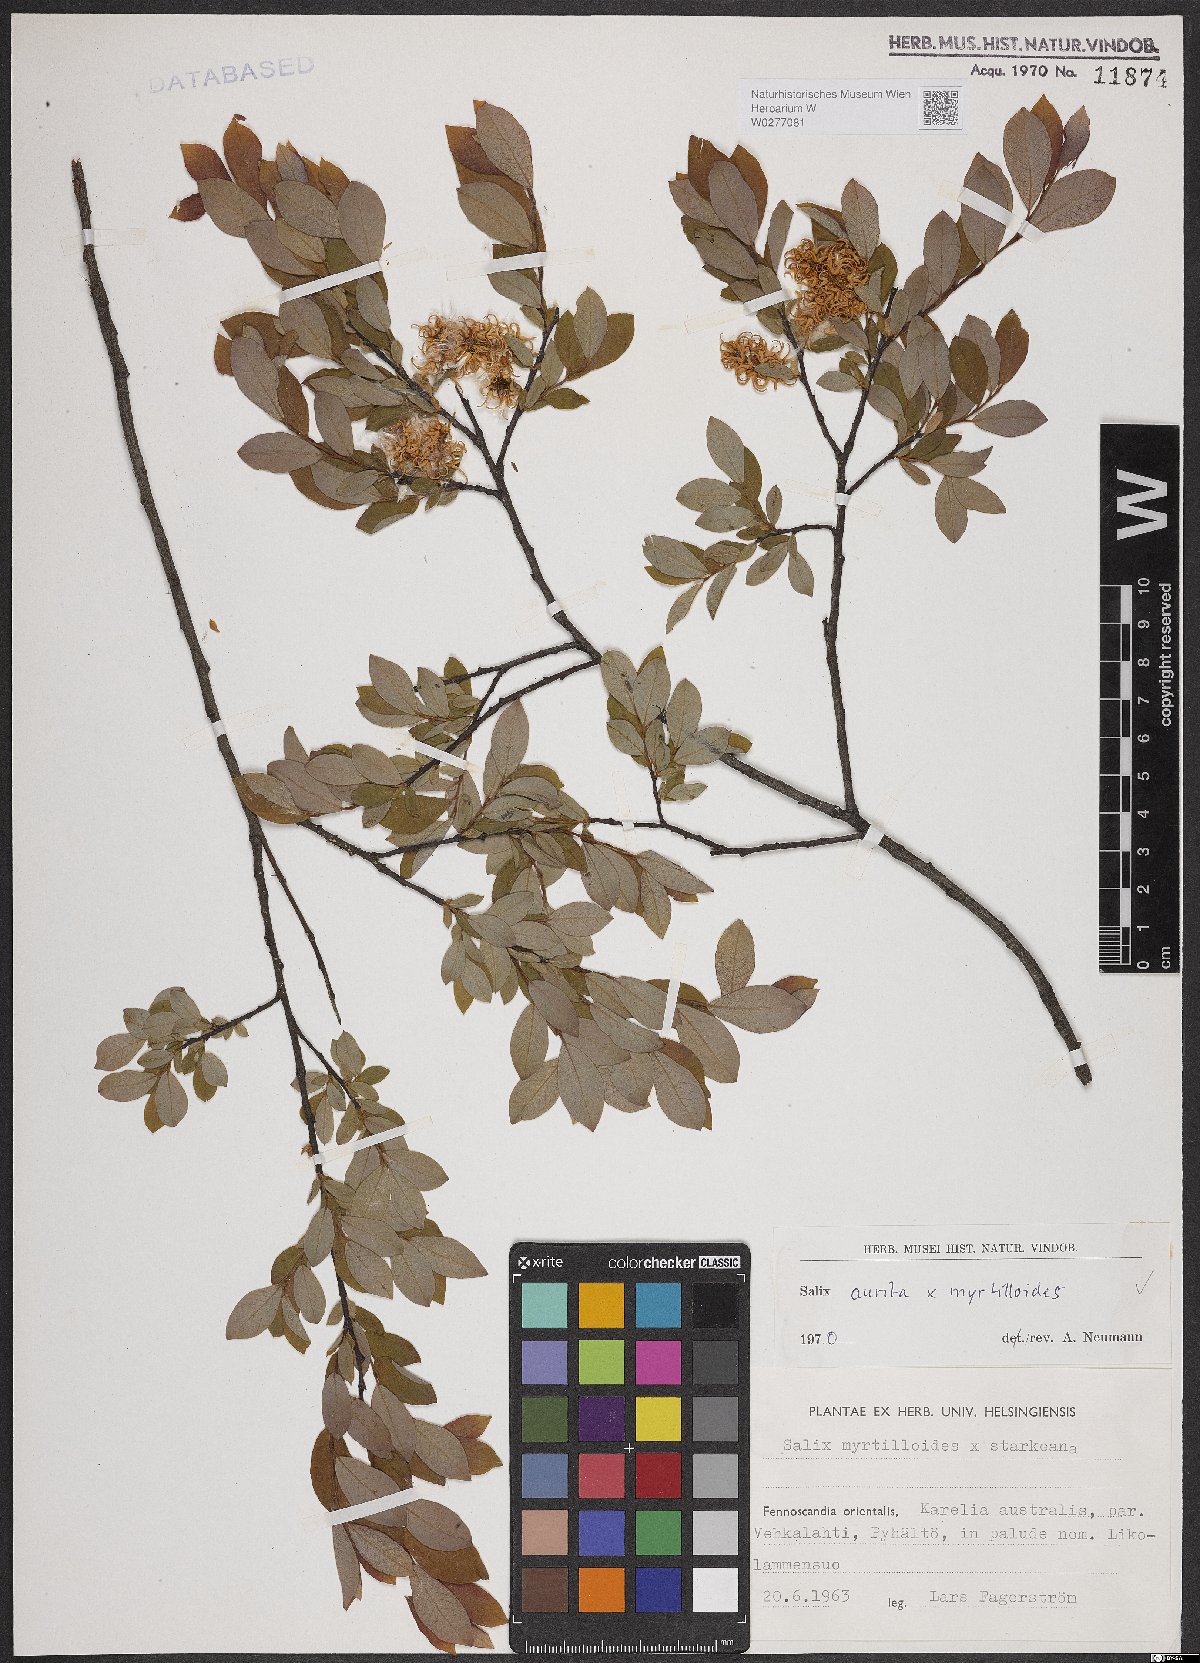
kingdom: Plantae
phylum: Tracheophyta
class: Magnoliopsida
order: Malpighiales
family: Salicaceae
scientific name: Salicaceae
